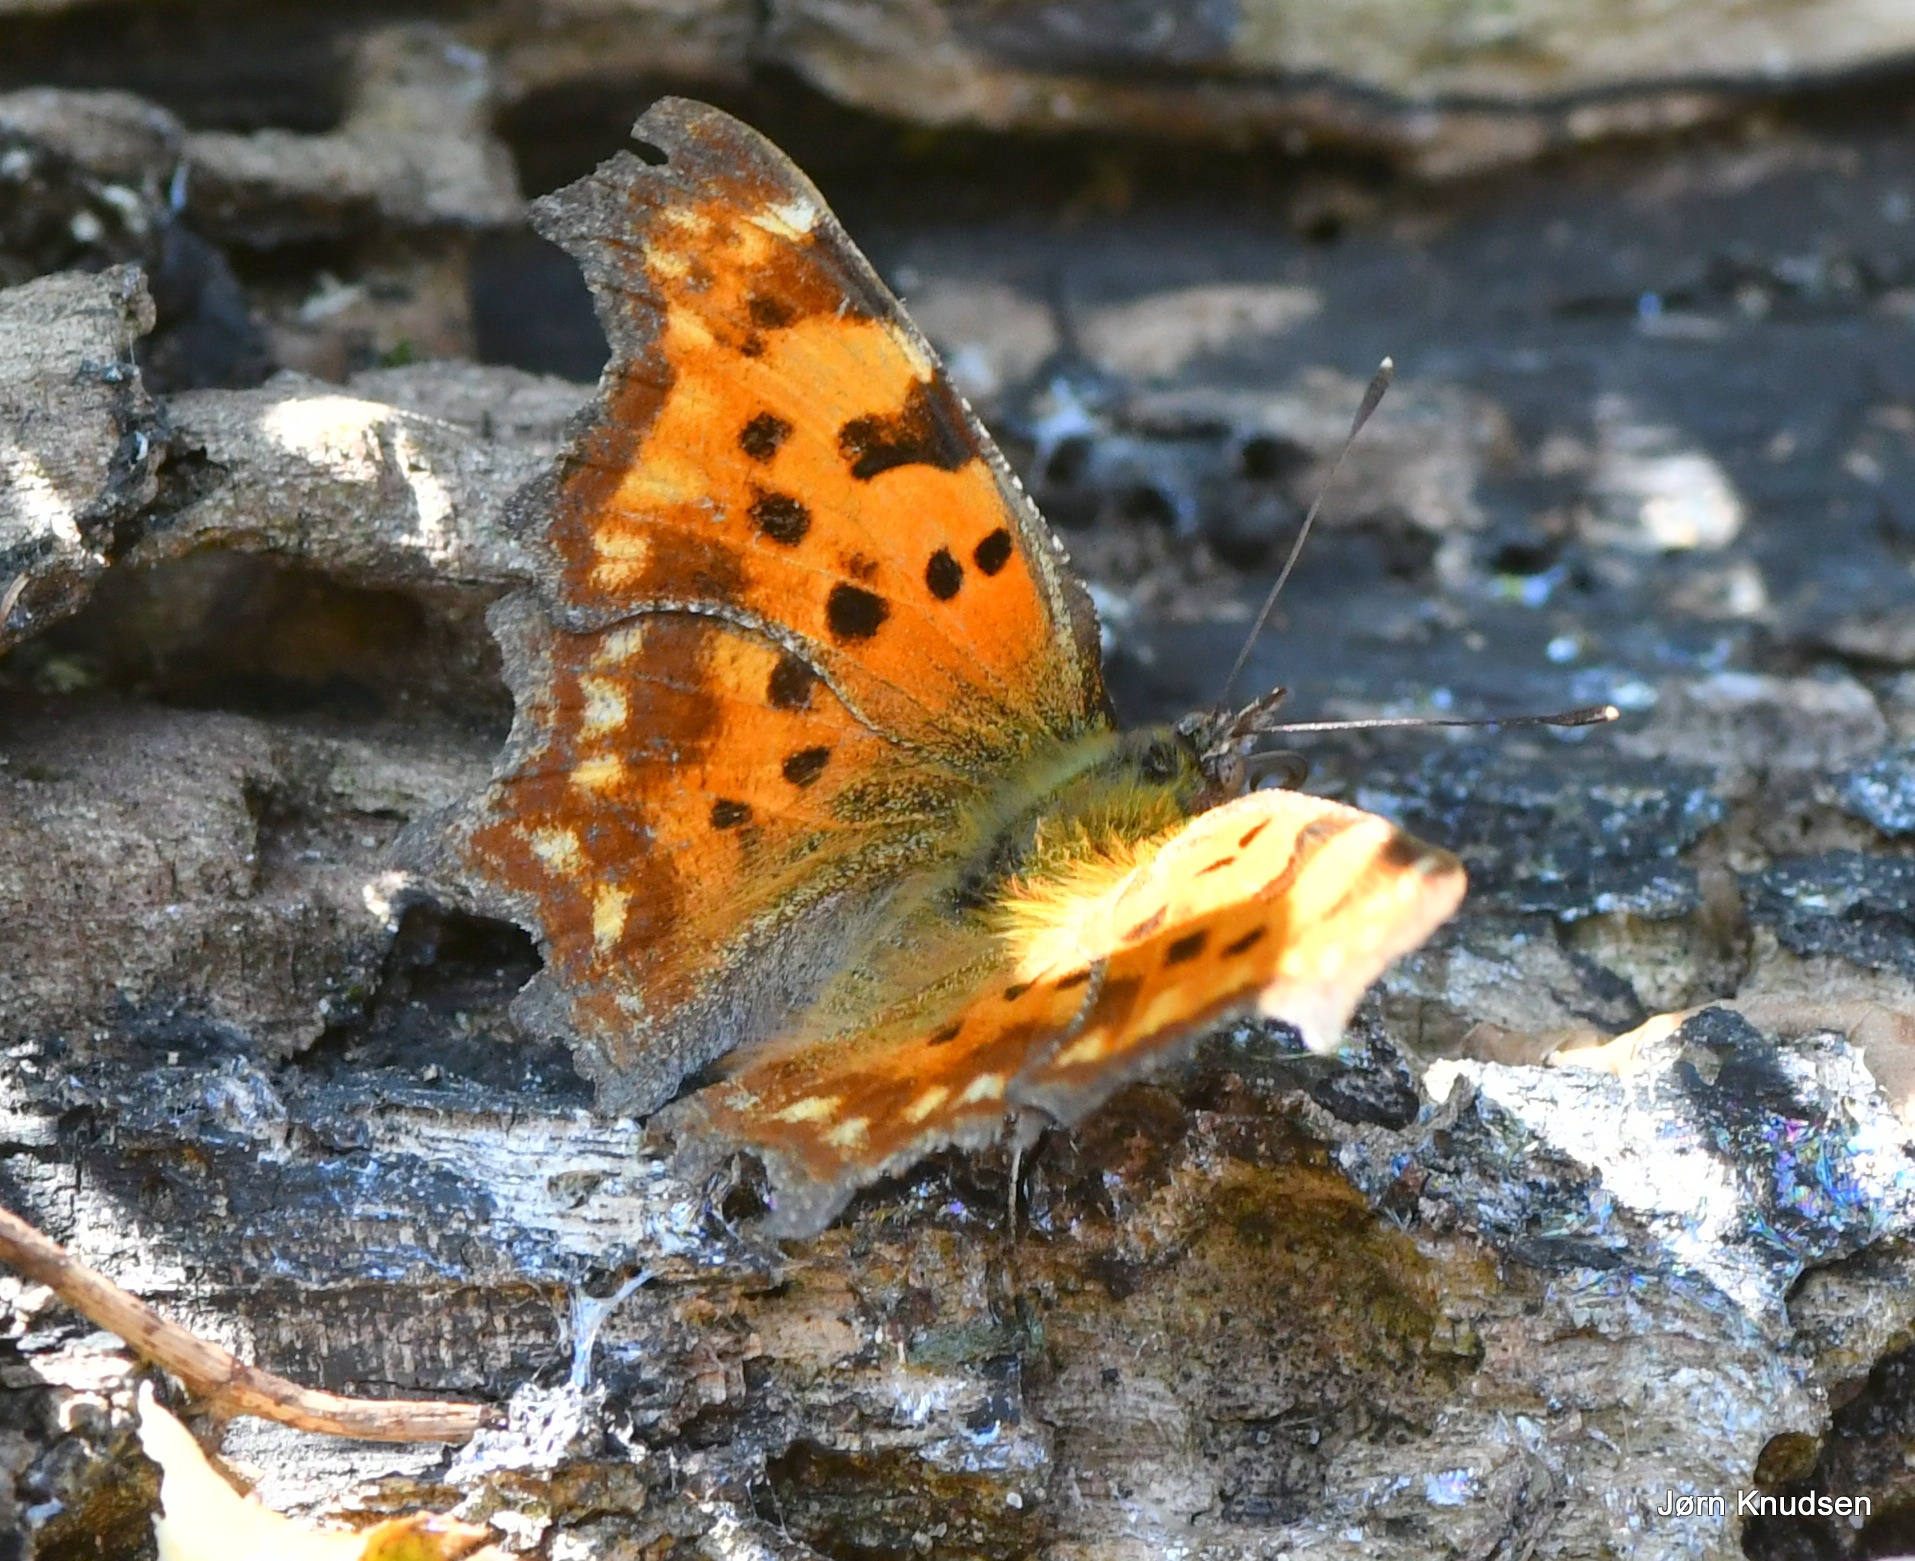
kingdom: Animalia
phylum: Arthropoda
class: Insecta
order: Lepidoptera
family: Nymphalidae
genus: Polygonia
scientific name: Polygonia c-album
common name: Det hvide C
